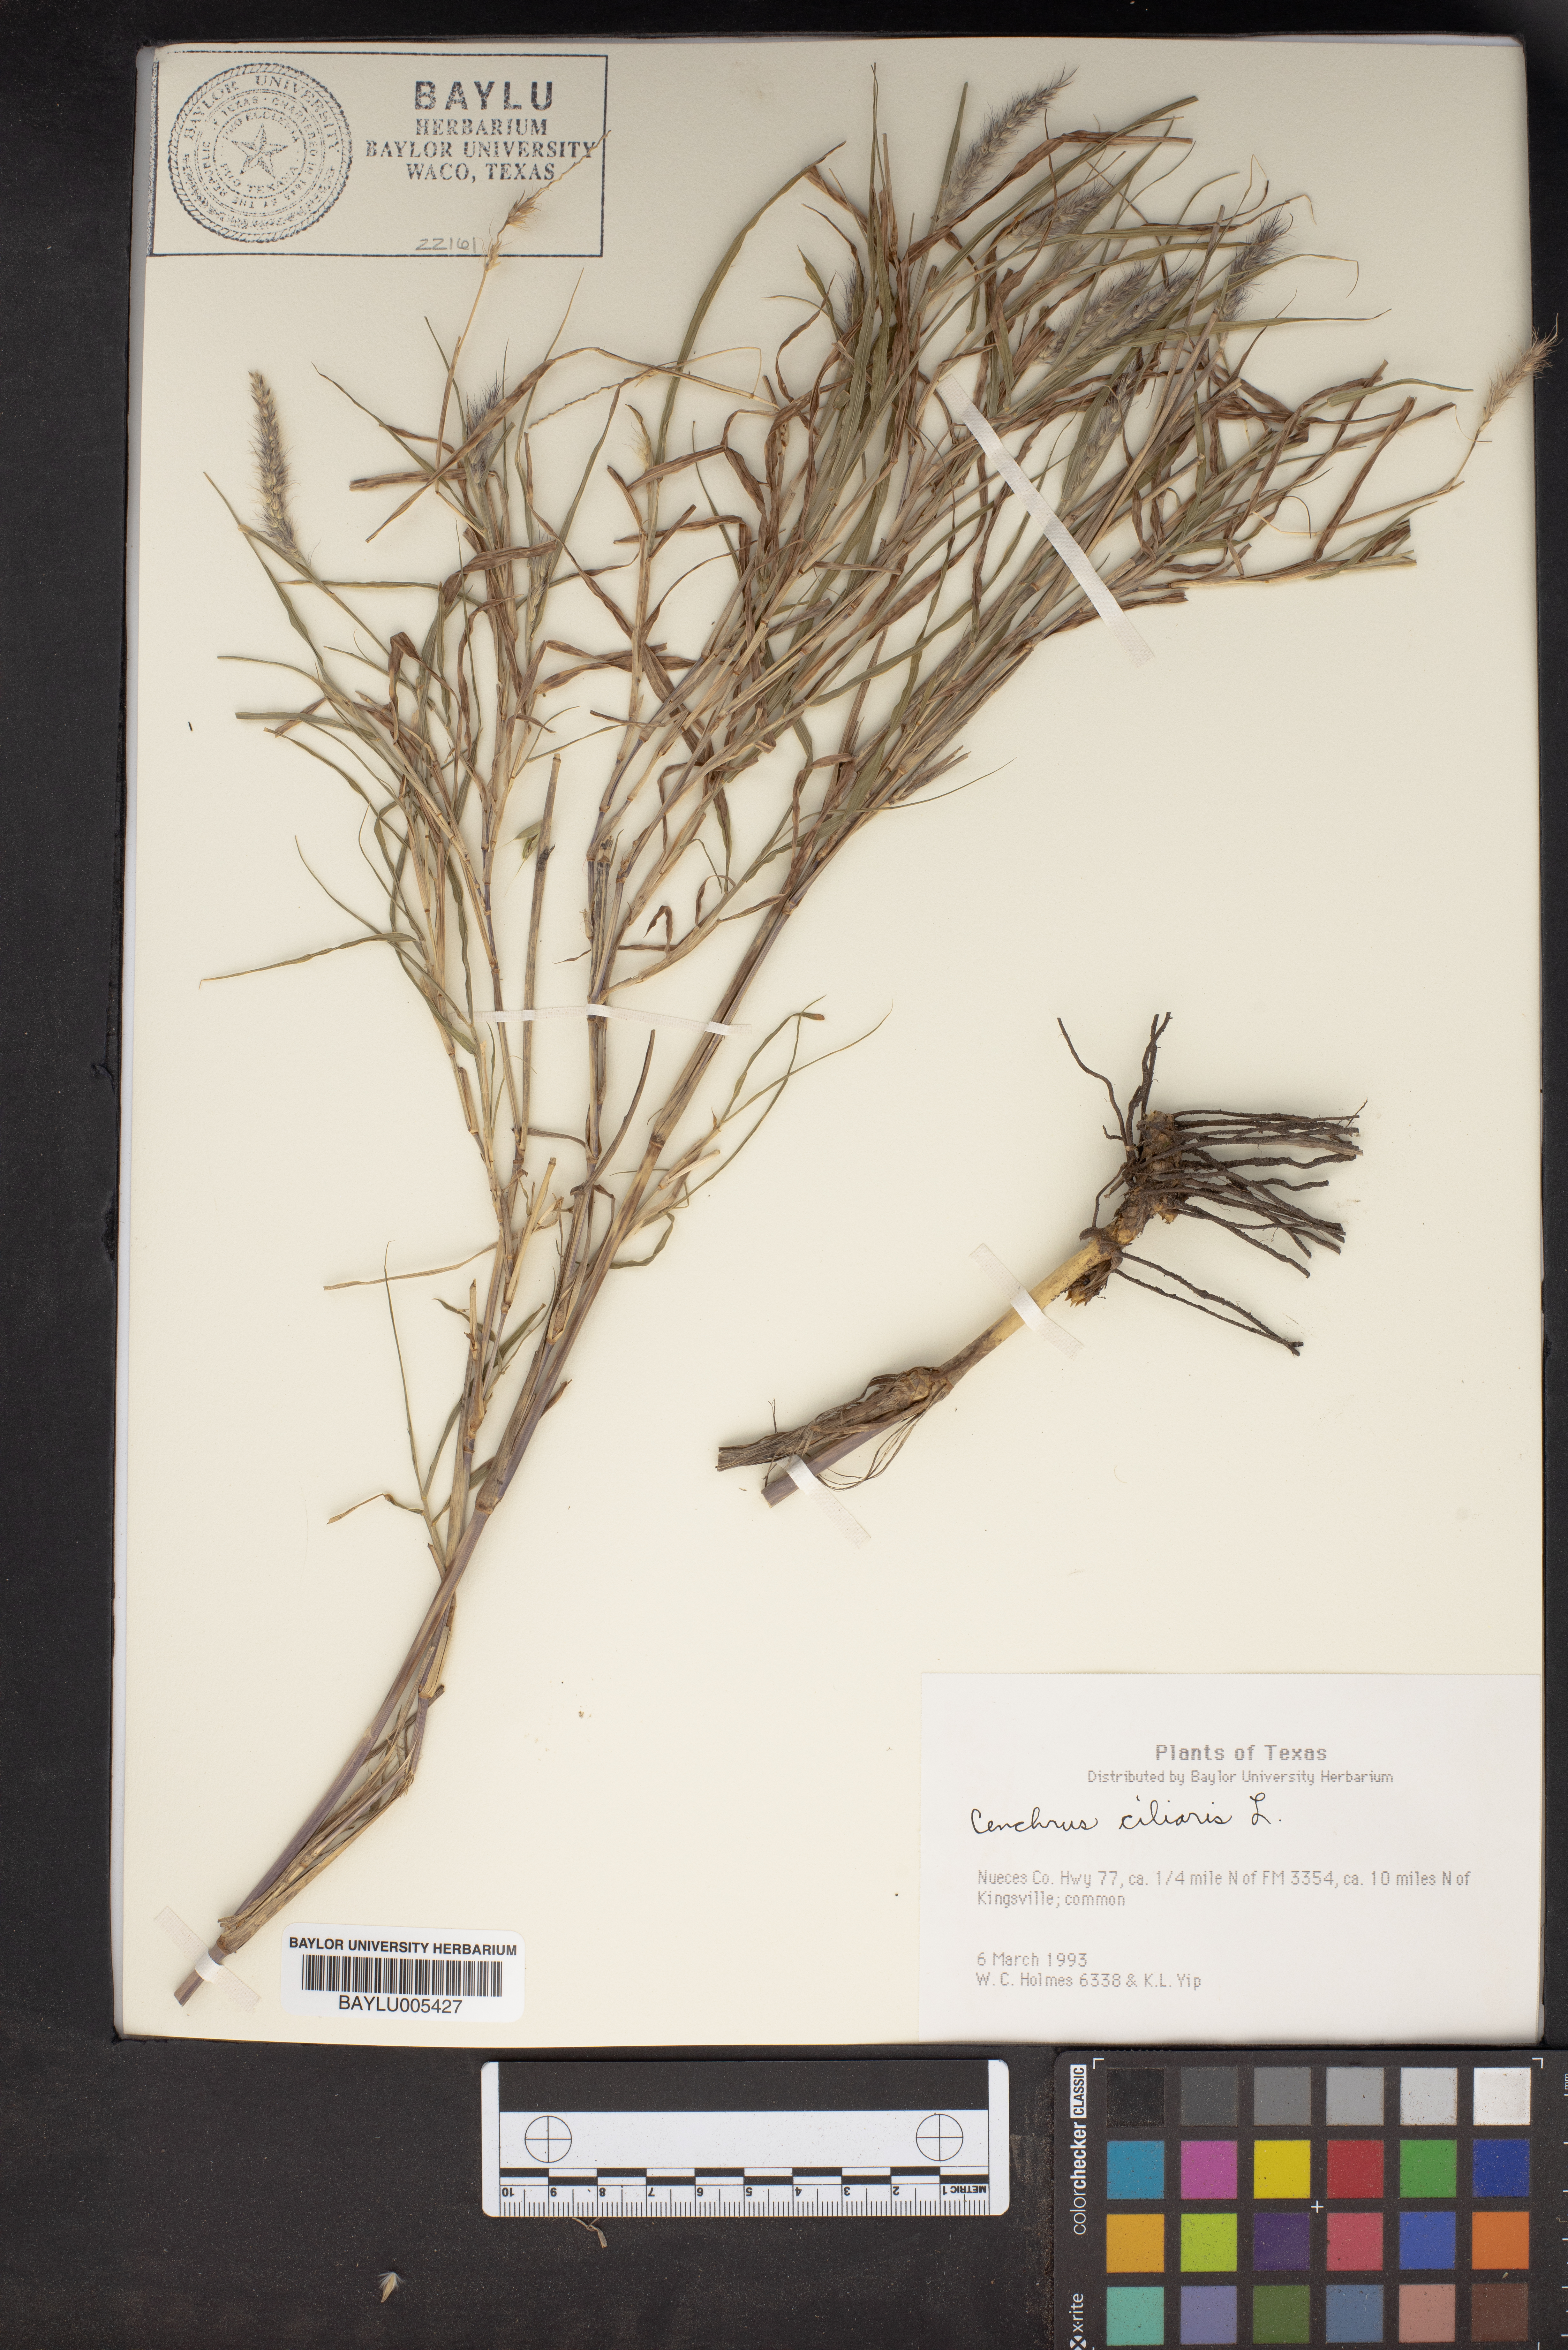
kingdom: Plantae
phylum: Tracheophyta
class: Liliopsida
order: Poales
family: Poaceae
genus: Cenchrus
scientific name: Cenchrus ciliaris
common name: Buffelgrass
